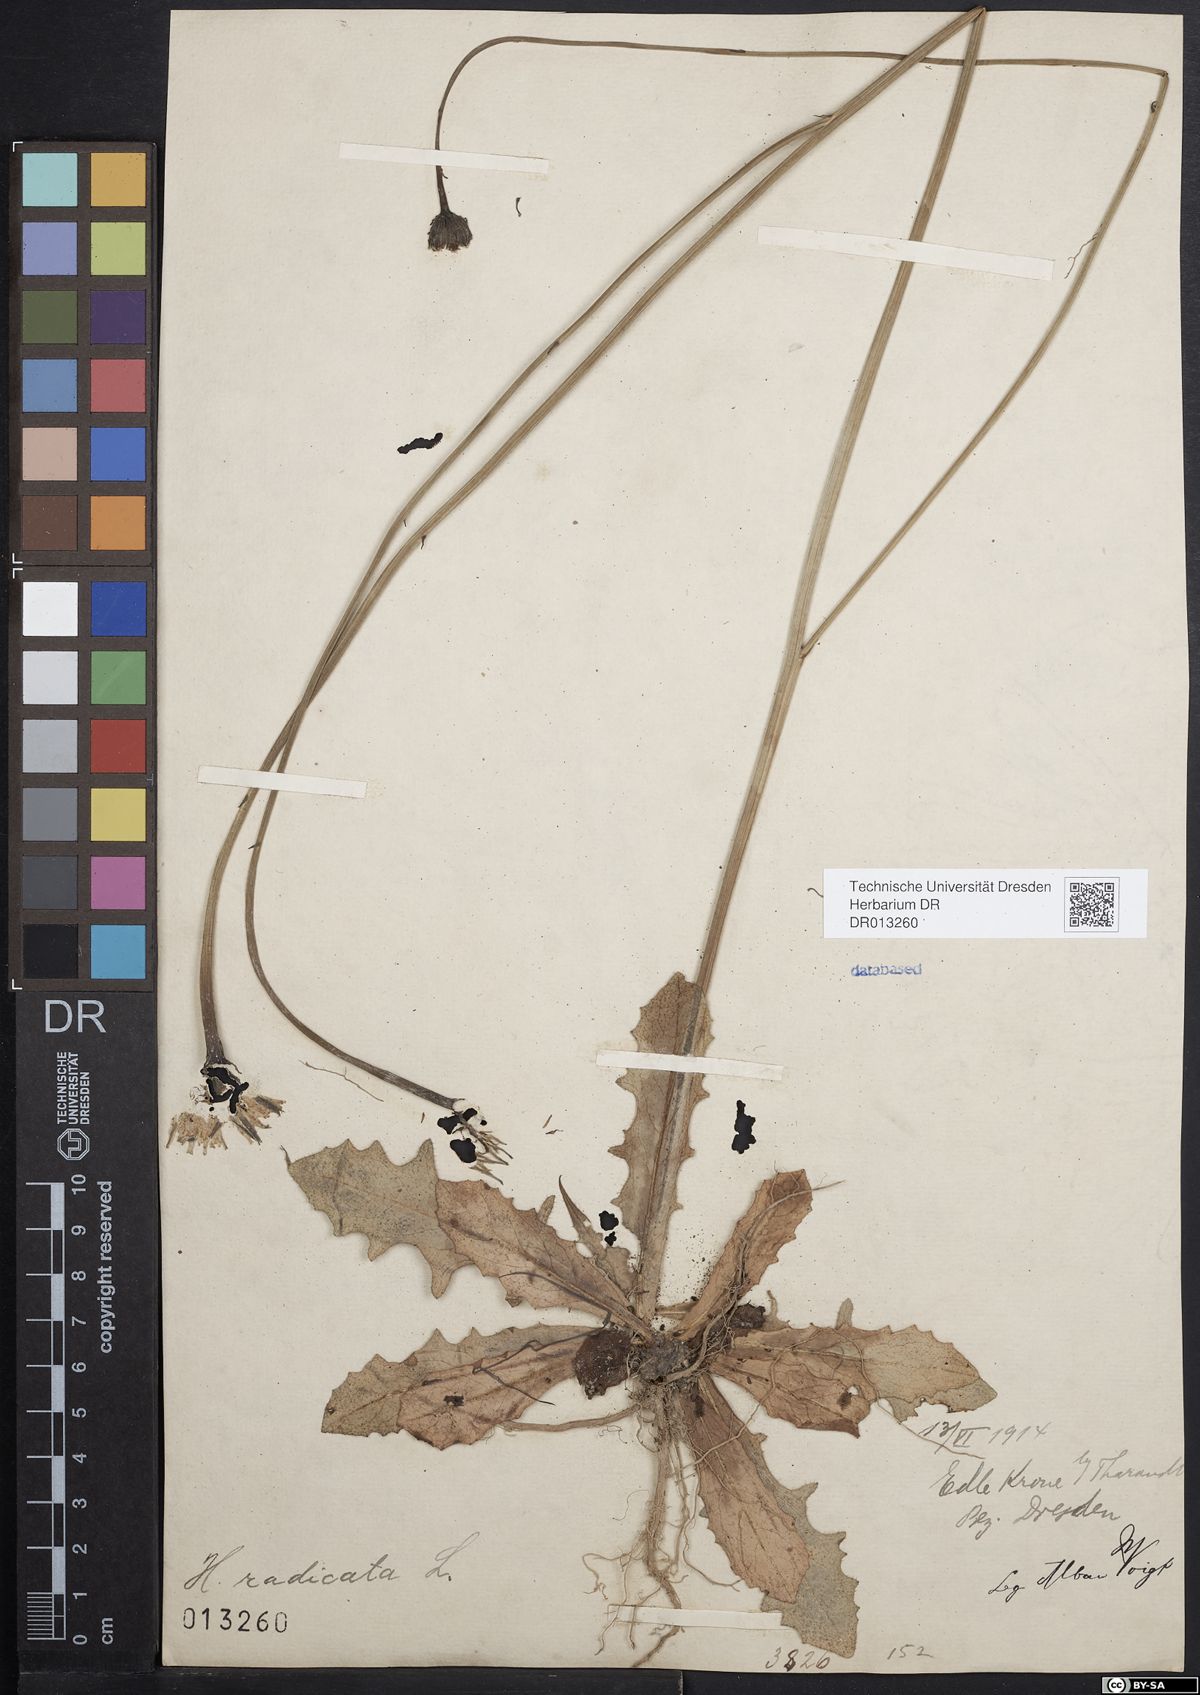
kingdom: Plantae
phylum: Tracheophyta
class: Magnoliopsida
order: Asterales
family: Asteraceae
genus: Hypochaeris
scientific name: Hypochaeris radicata
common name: Flatweed
